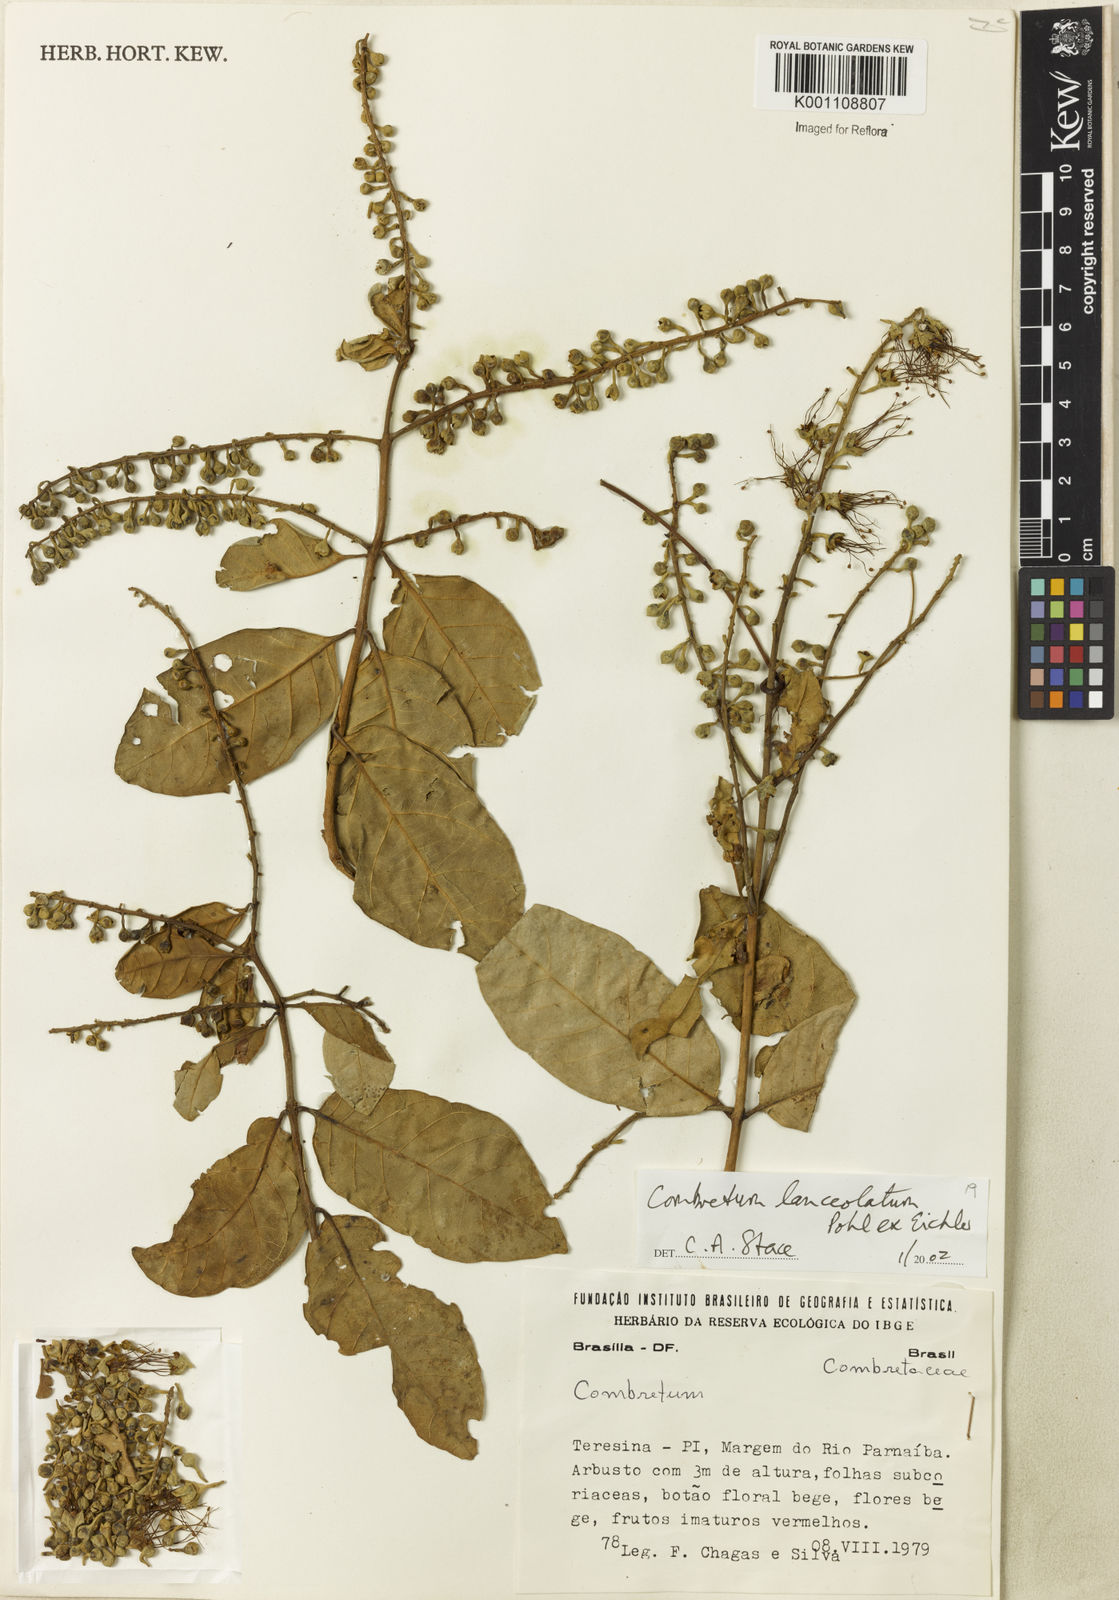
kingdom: Plantae
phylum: Tracheophyta
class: Magnoliopsida
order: Myrtales
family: Combretaceae
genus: Combretum
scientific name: Combretum lanceolatum
